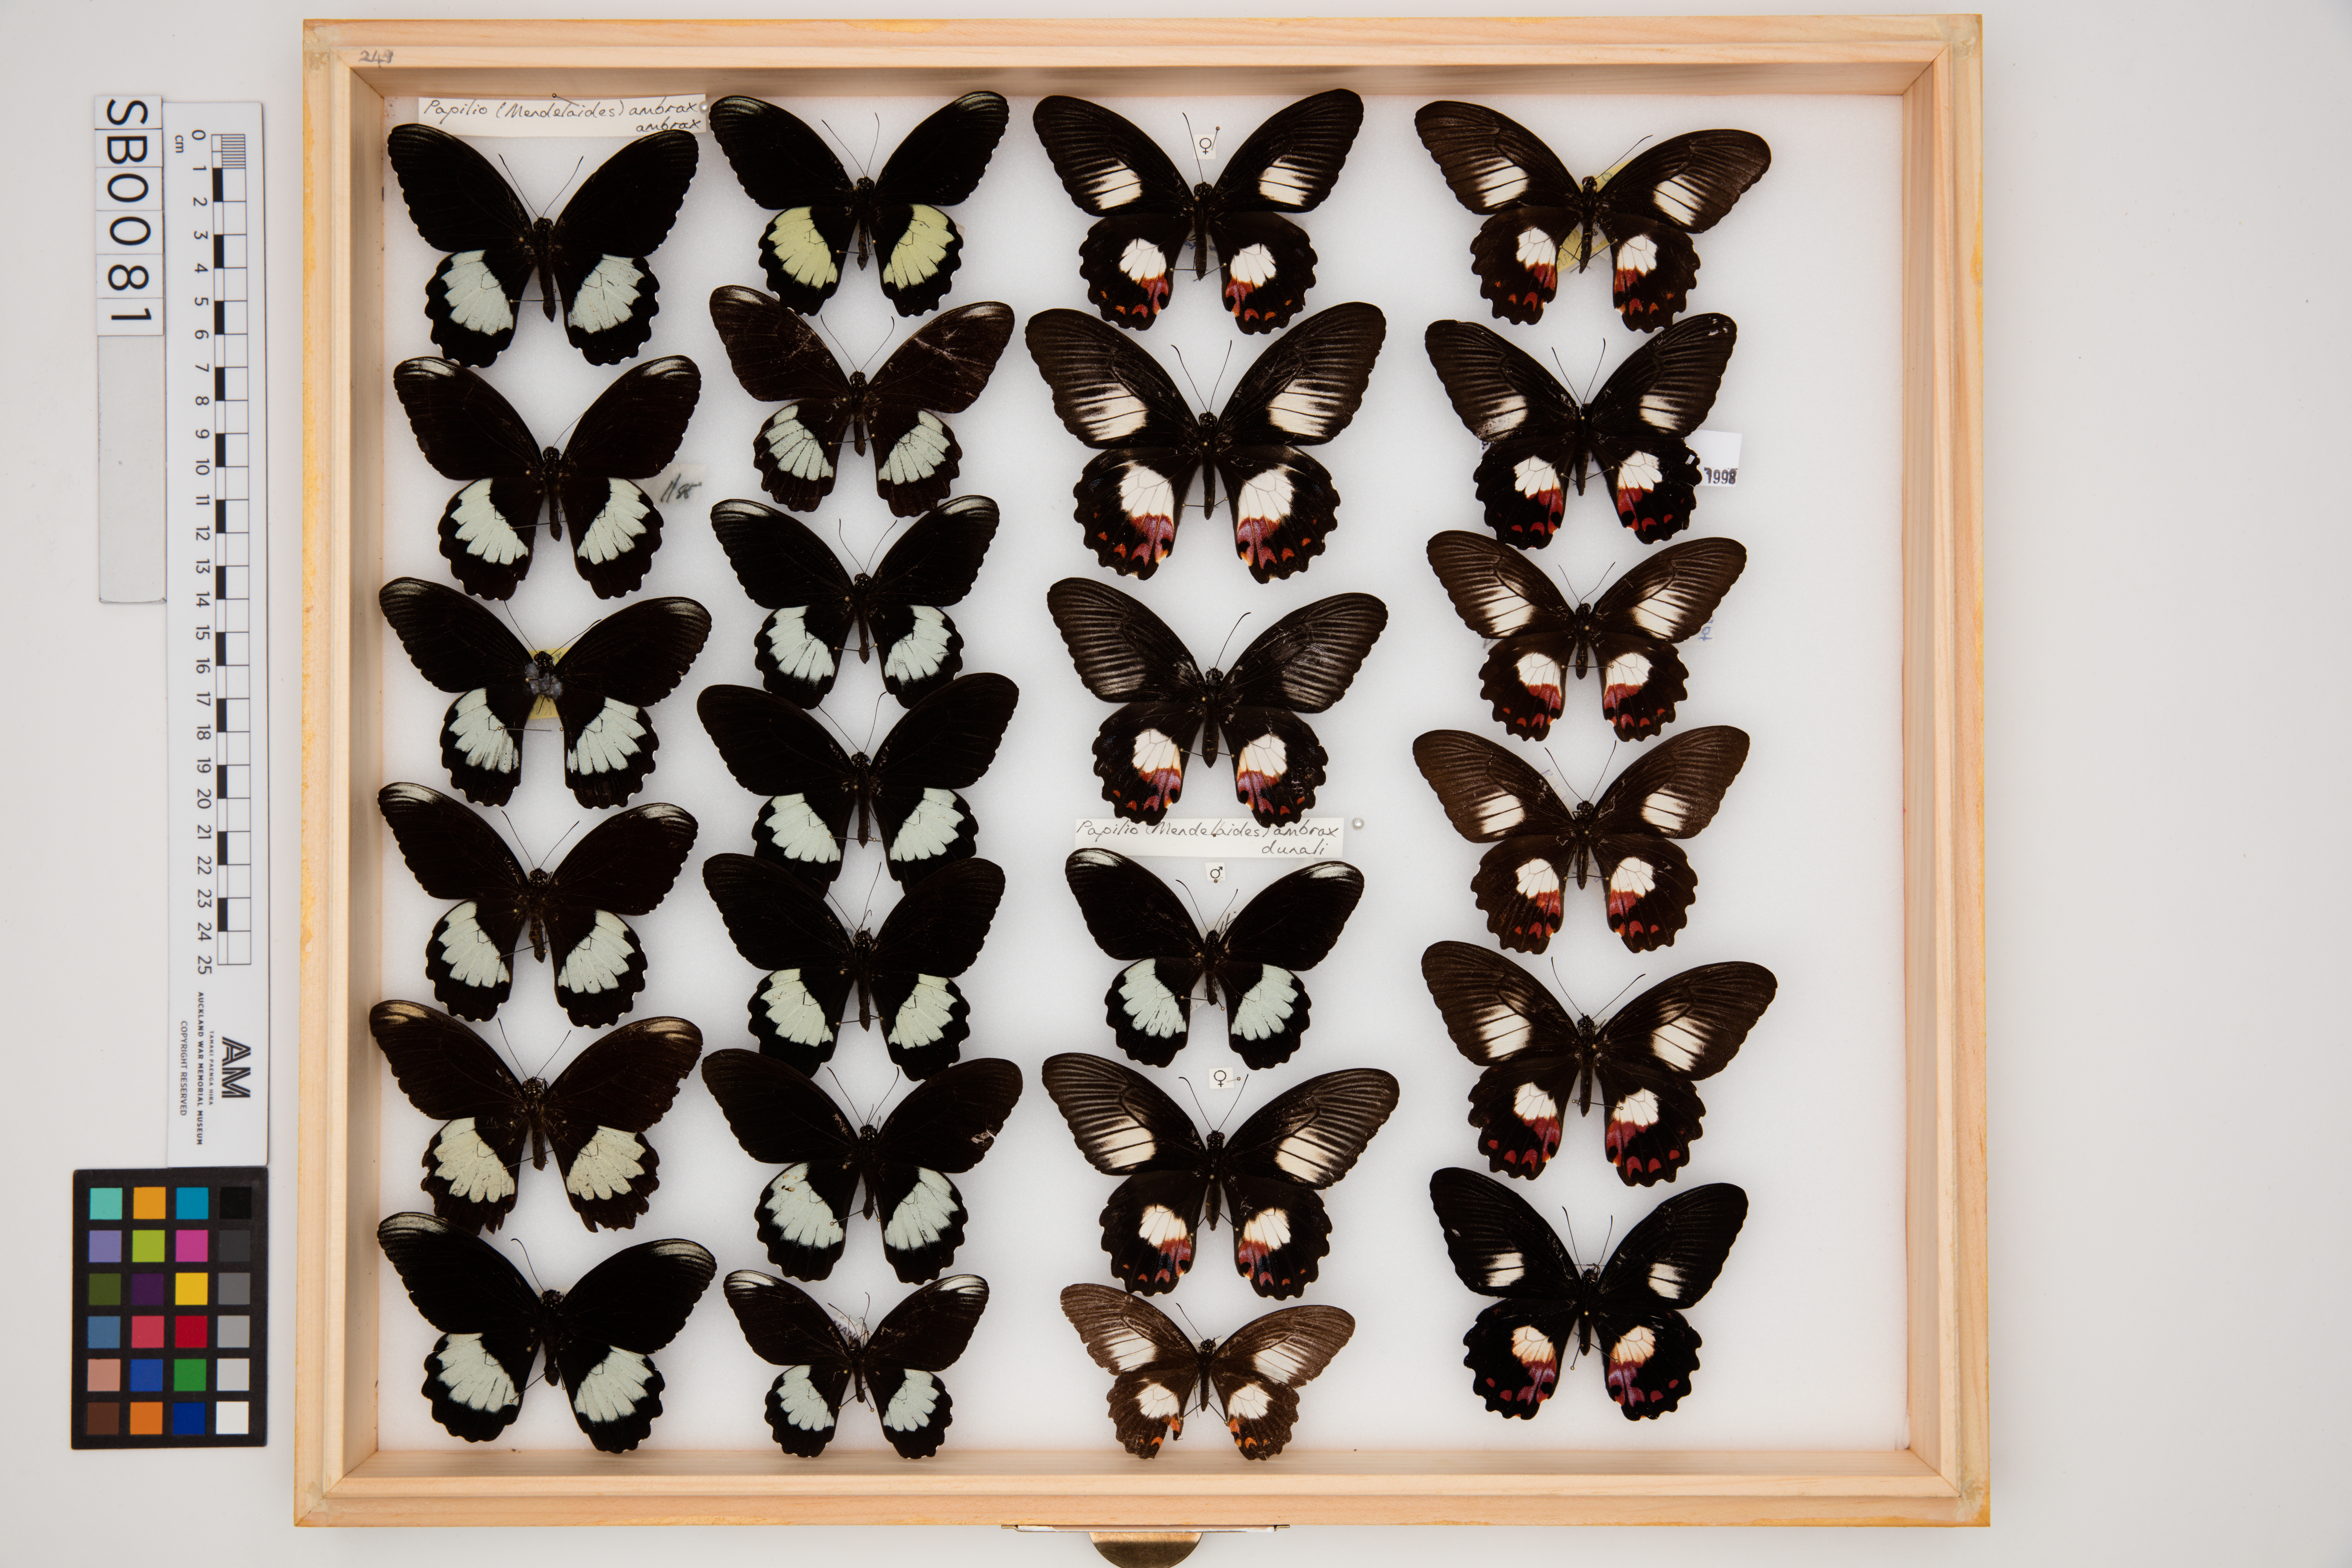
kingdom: Animalia
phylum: Arthropoda
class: Insecta
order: Lepidoptera
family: Papilionidae
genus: Papilio
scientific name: Papilio ambrax
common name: Ambrax butterfly
